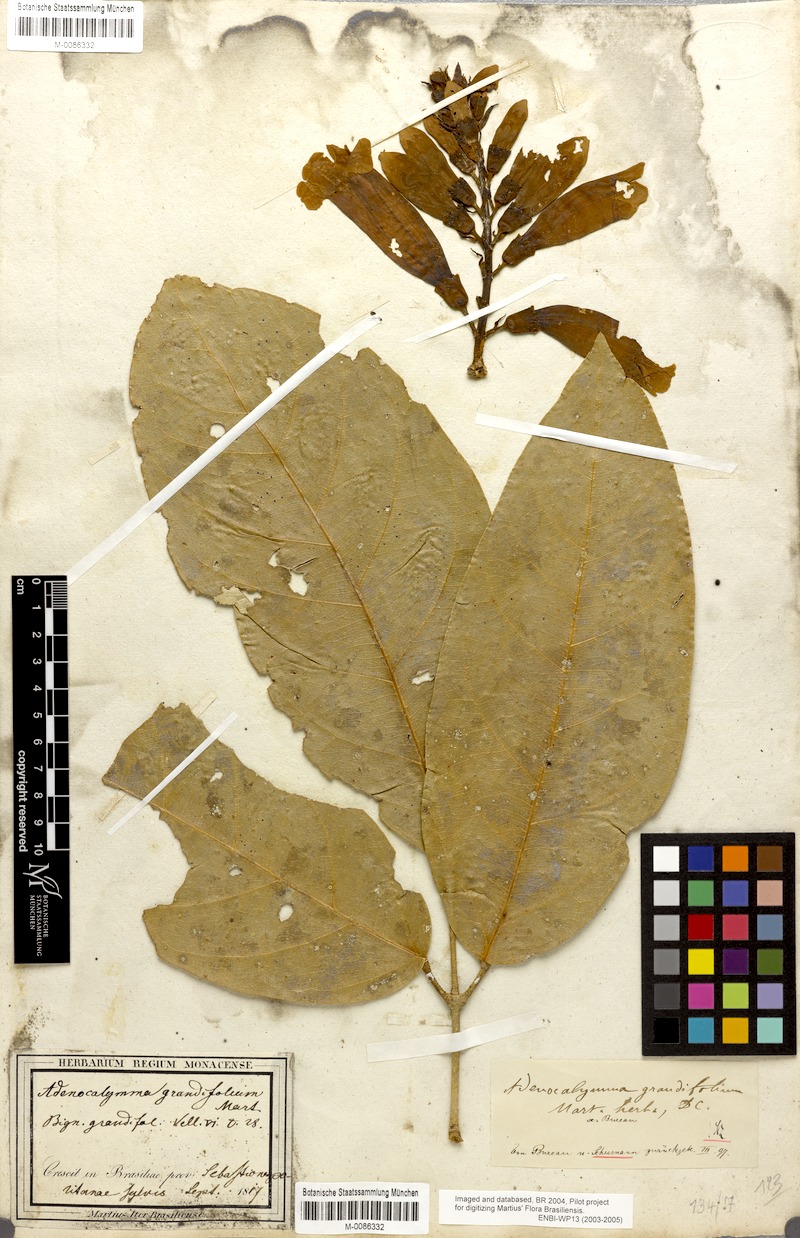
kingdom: Plantae
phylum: Tracheophyta
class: Magnoliopsida
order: Lamiales
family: Bignoniaceae
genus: Adenocalymma
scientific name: Adenocalymma ternatum
